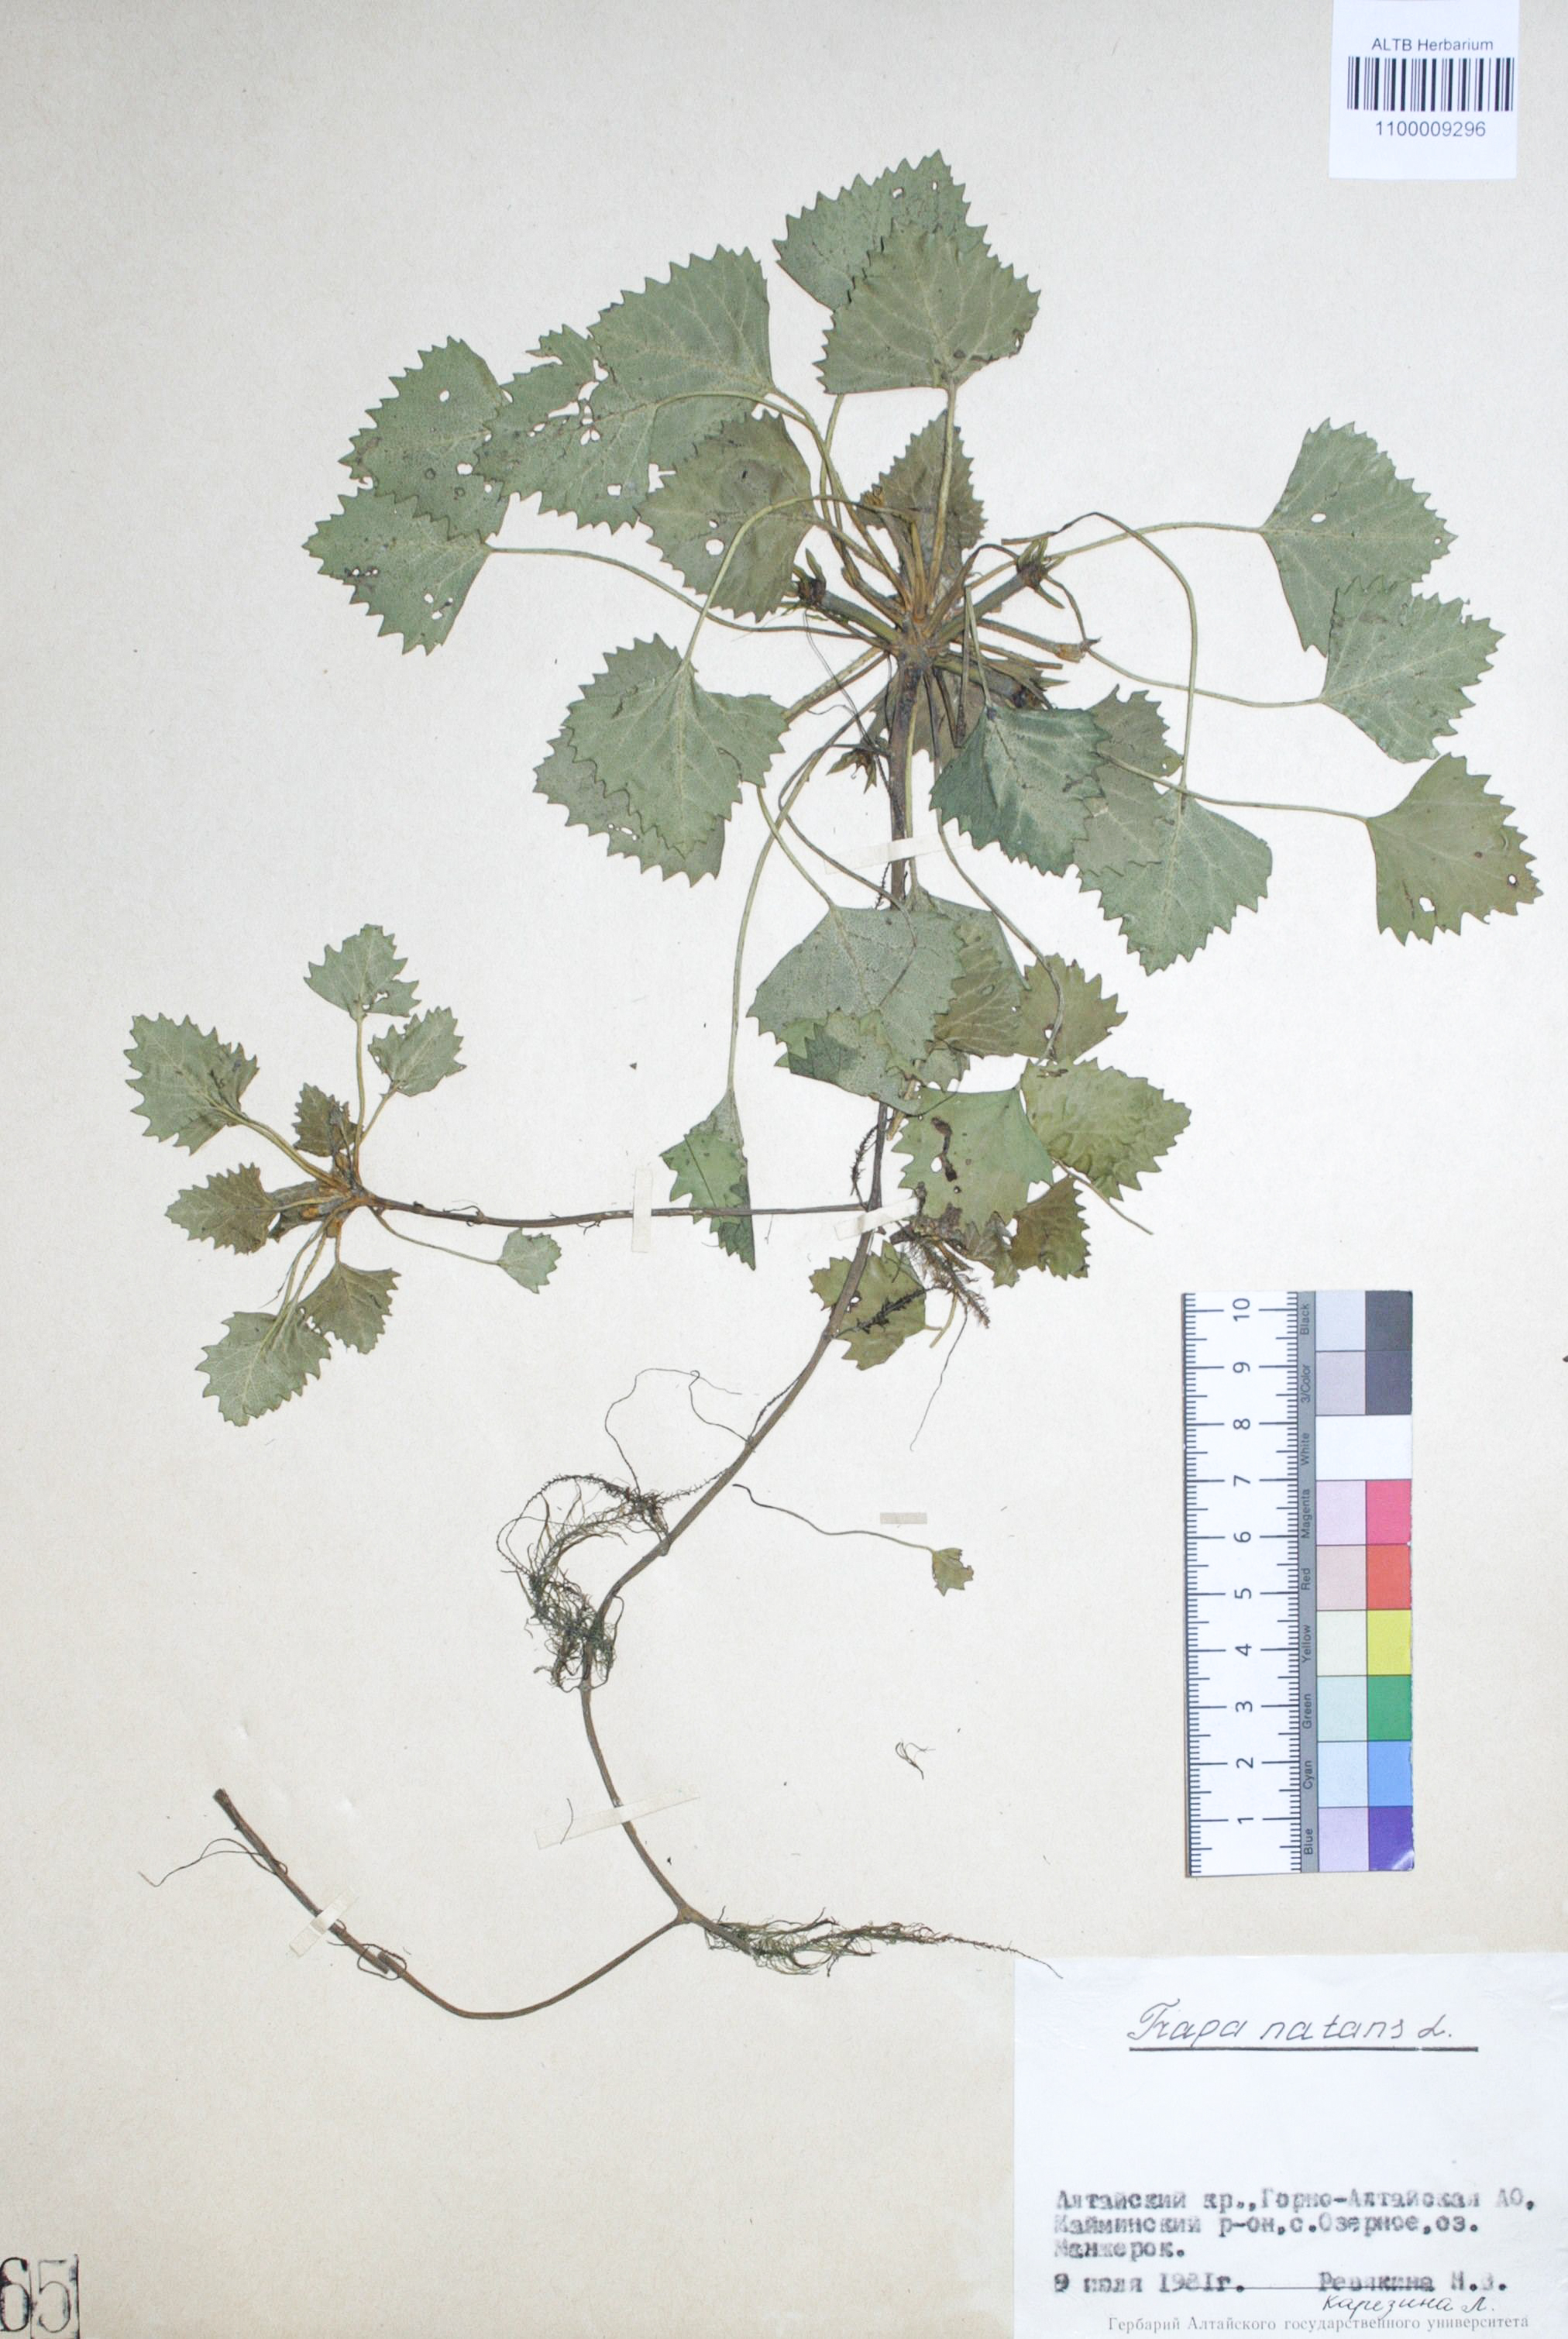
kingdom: Plantae
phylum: Tracheophyta
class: Magnoliopsida
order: Myrtales
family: Lythraceae
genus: Trapa
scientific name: Trapa natans
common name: Water chestnut
